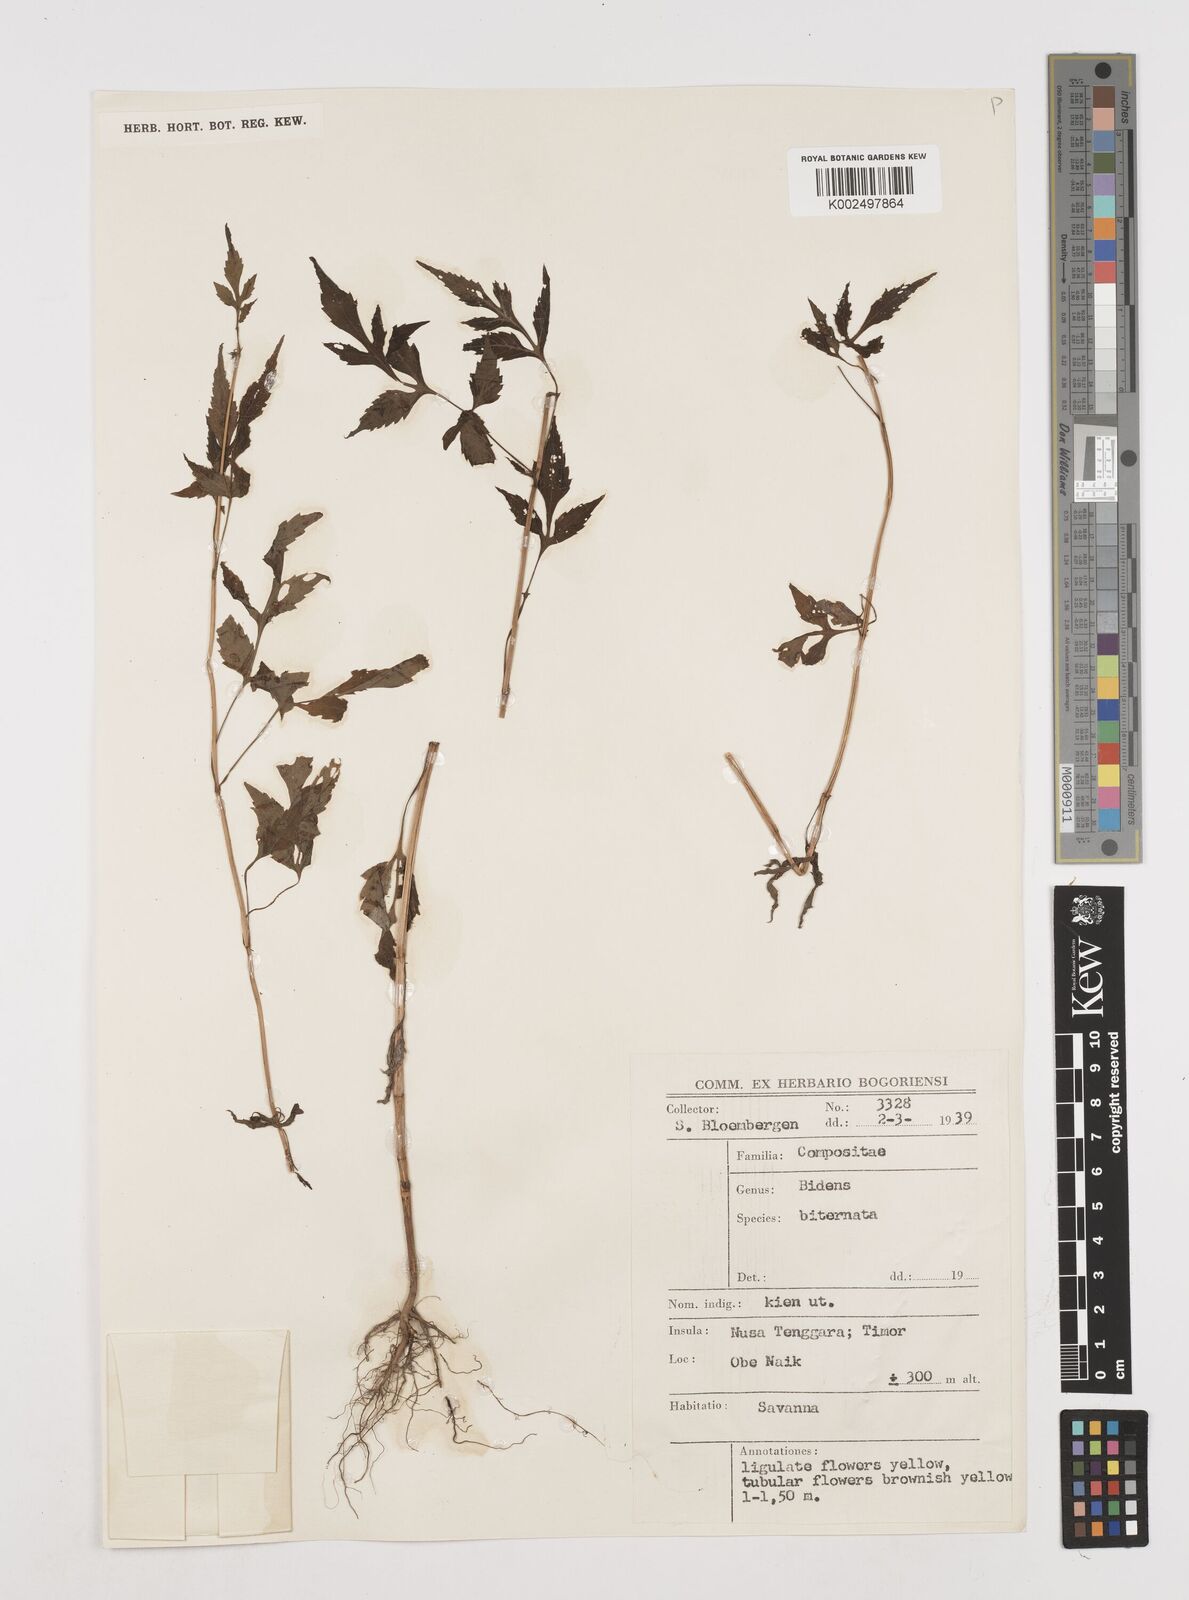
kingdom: Plantae
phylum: Tracheophyta
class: Magnoliopsida
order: Asterales
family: Asteraceae
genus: Bidens
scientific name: Bidens biternata
